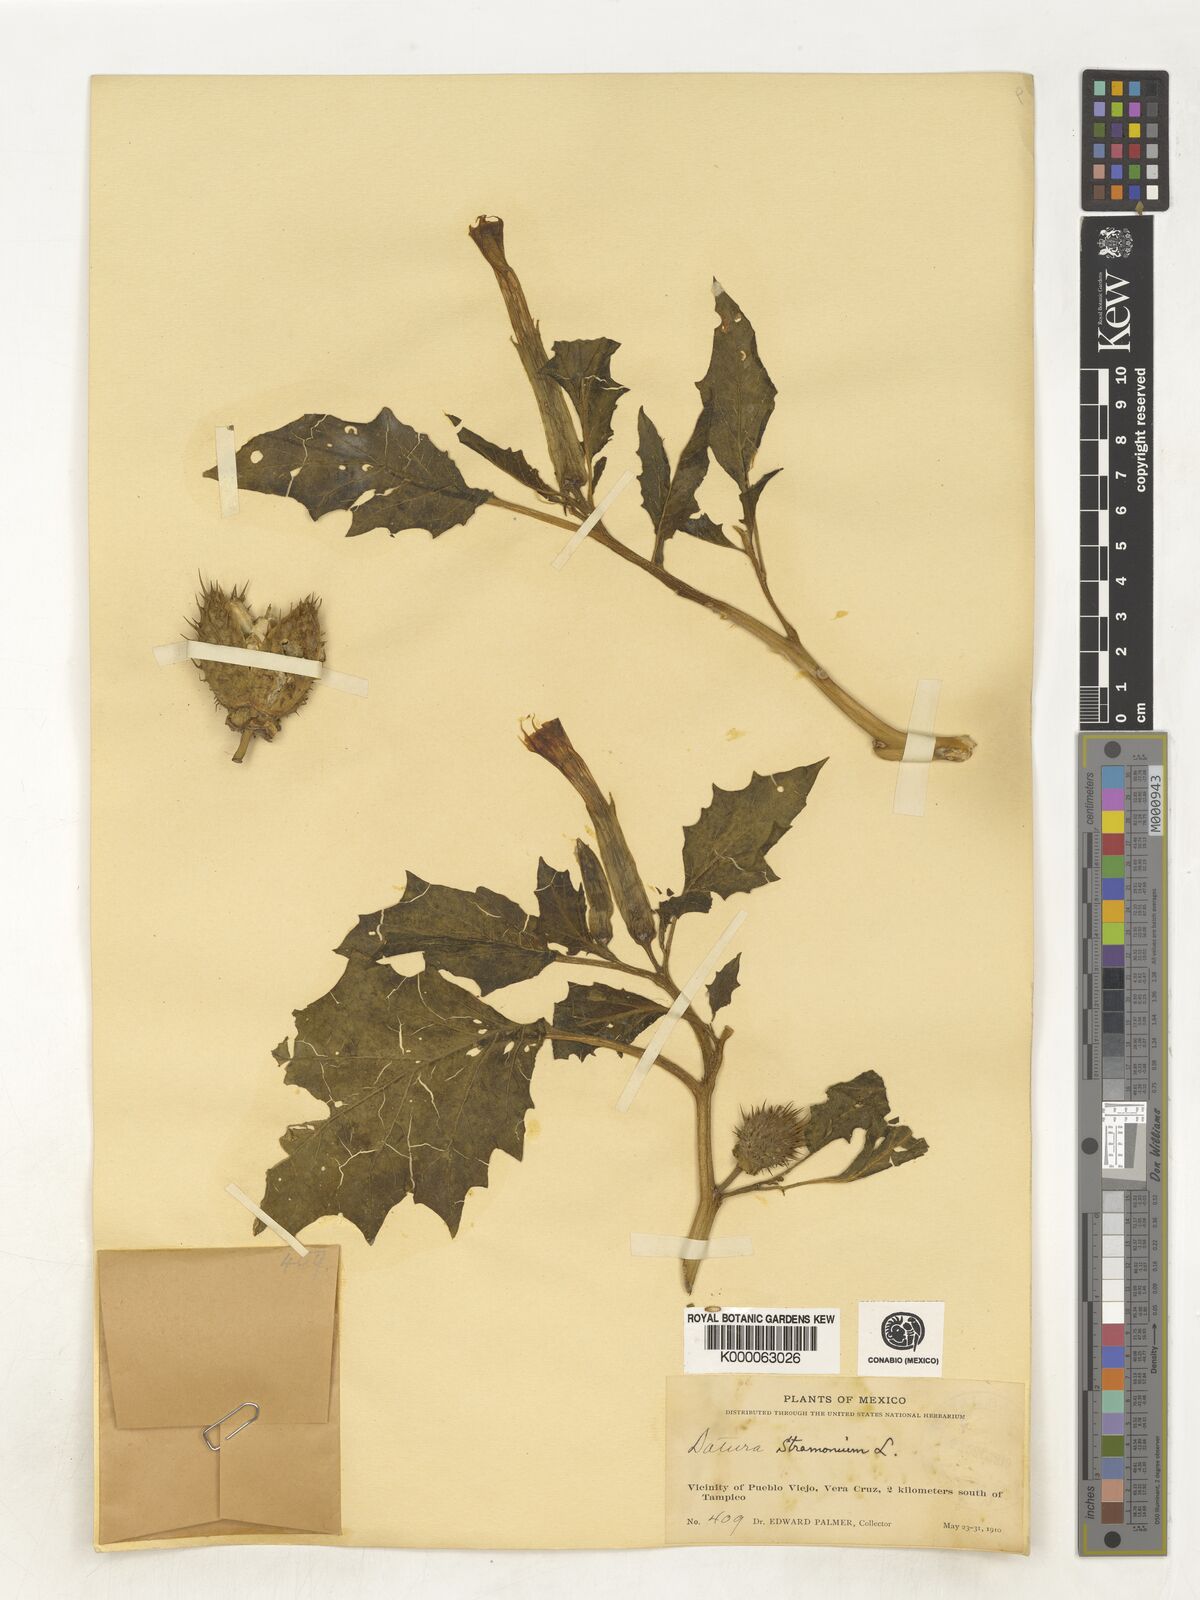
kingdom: Plantae
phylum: Tracheophyta
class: Magnoliopsida
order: Solanales
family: Solanaceae
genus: Datura
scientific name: Datura stramonium
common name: Thorn-apple
